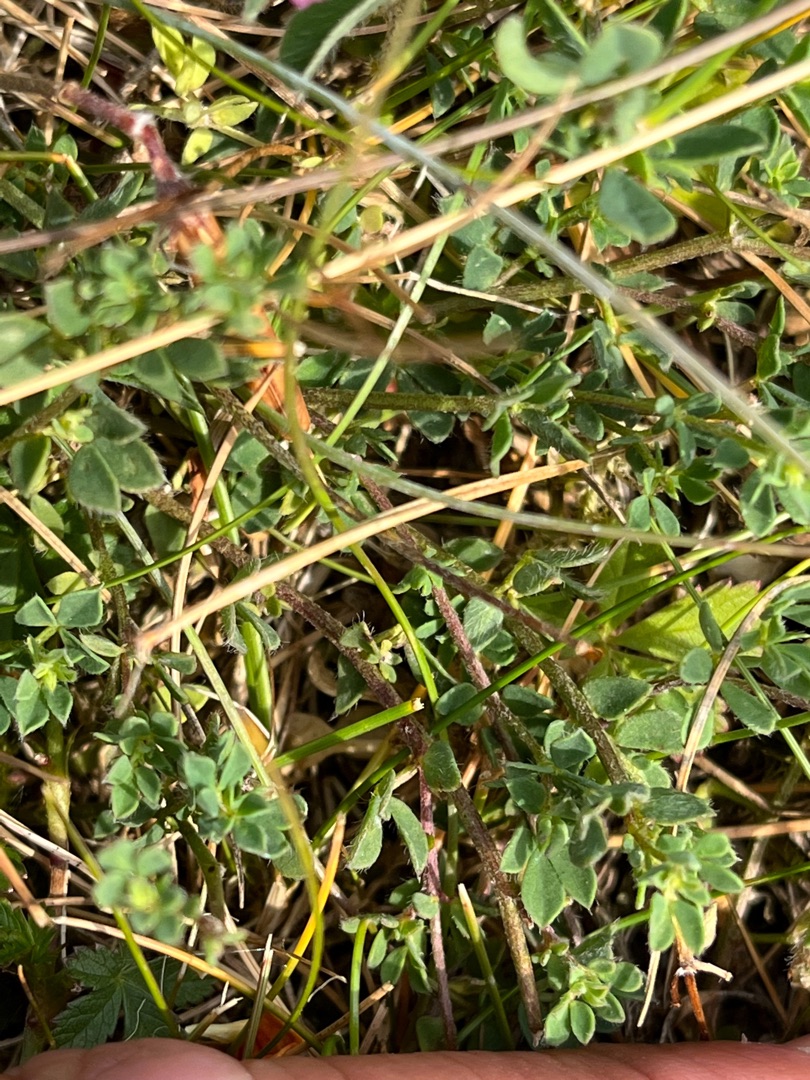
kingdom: Plantae
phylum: Tracheophyta
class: Magnoliopsida
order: Fabales
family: Fabaceae
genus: Lotus
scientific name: Lotus corniculatus
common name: Almindelig kællingetand
